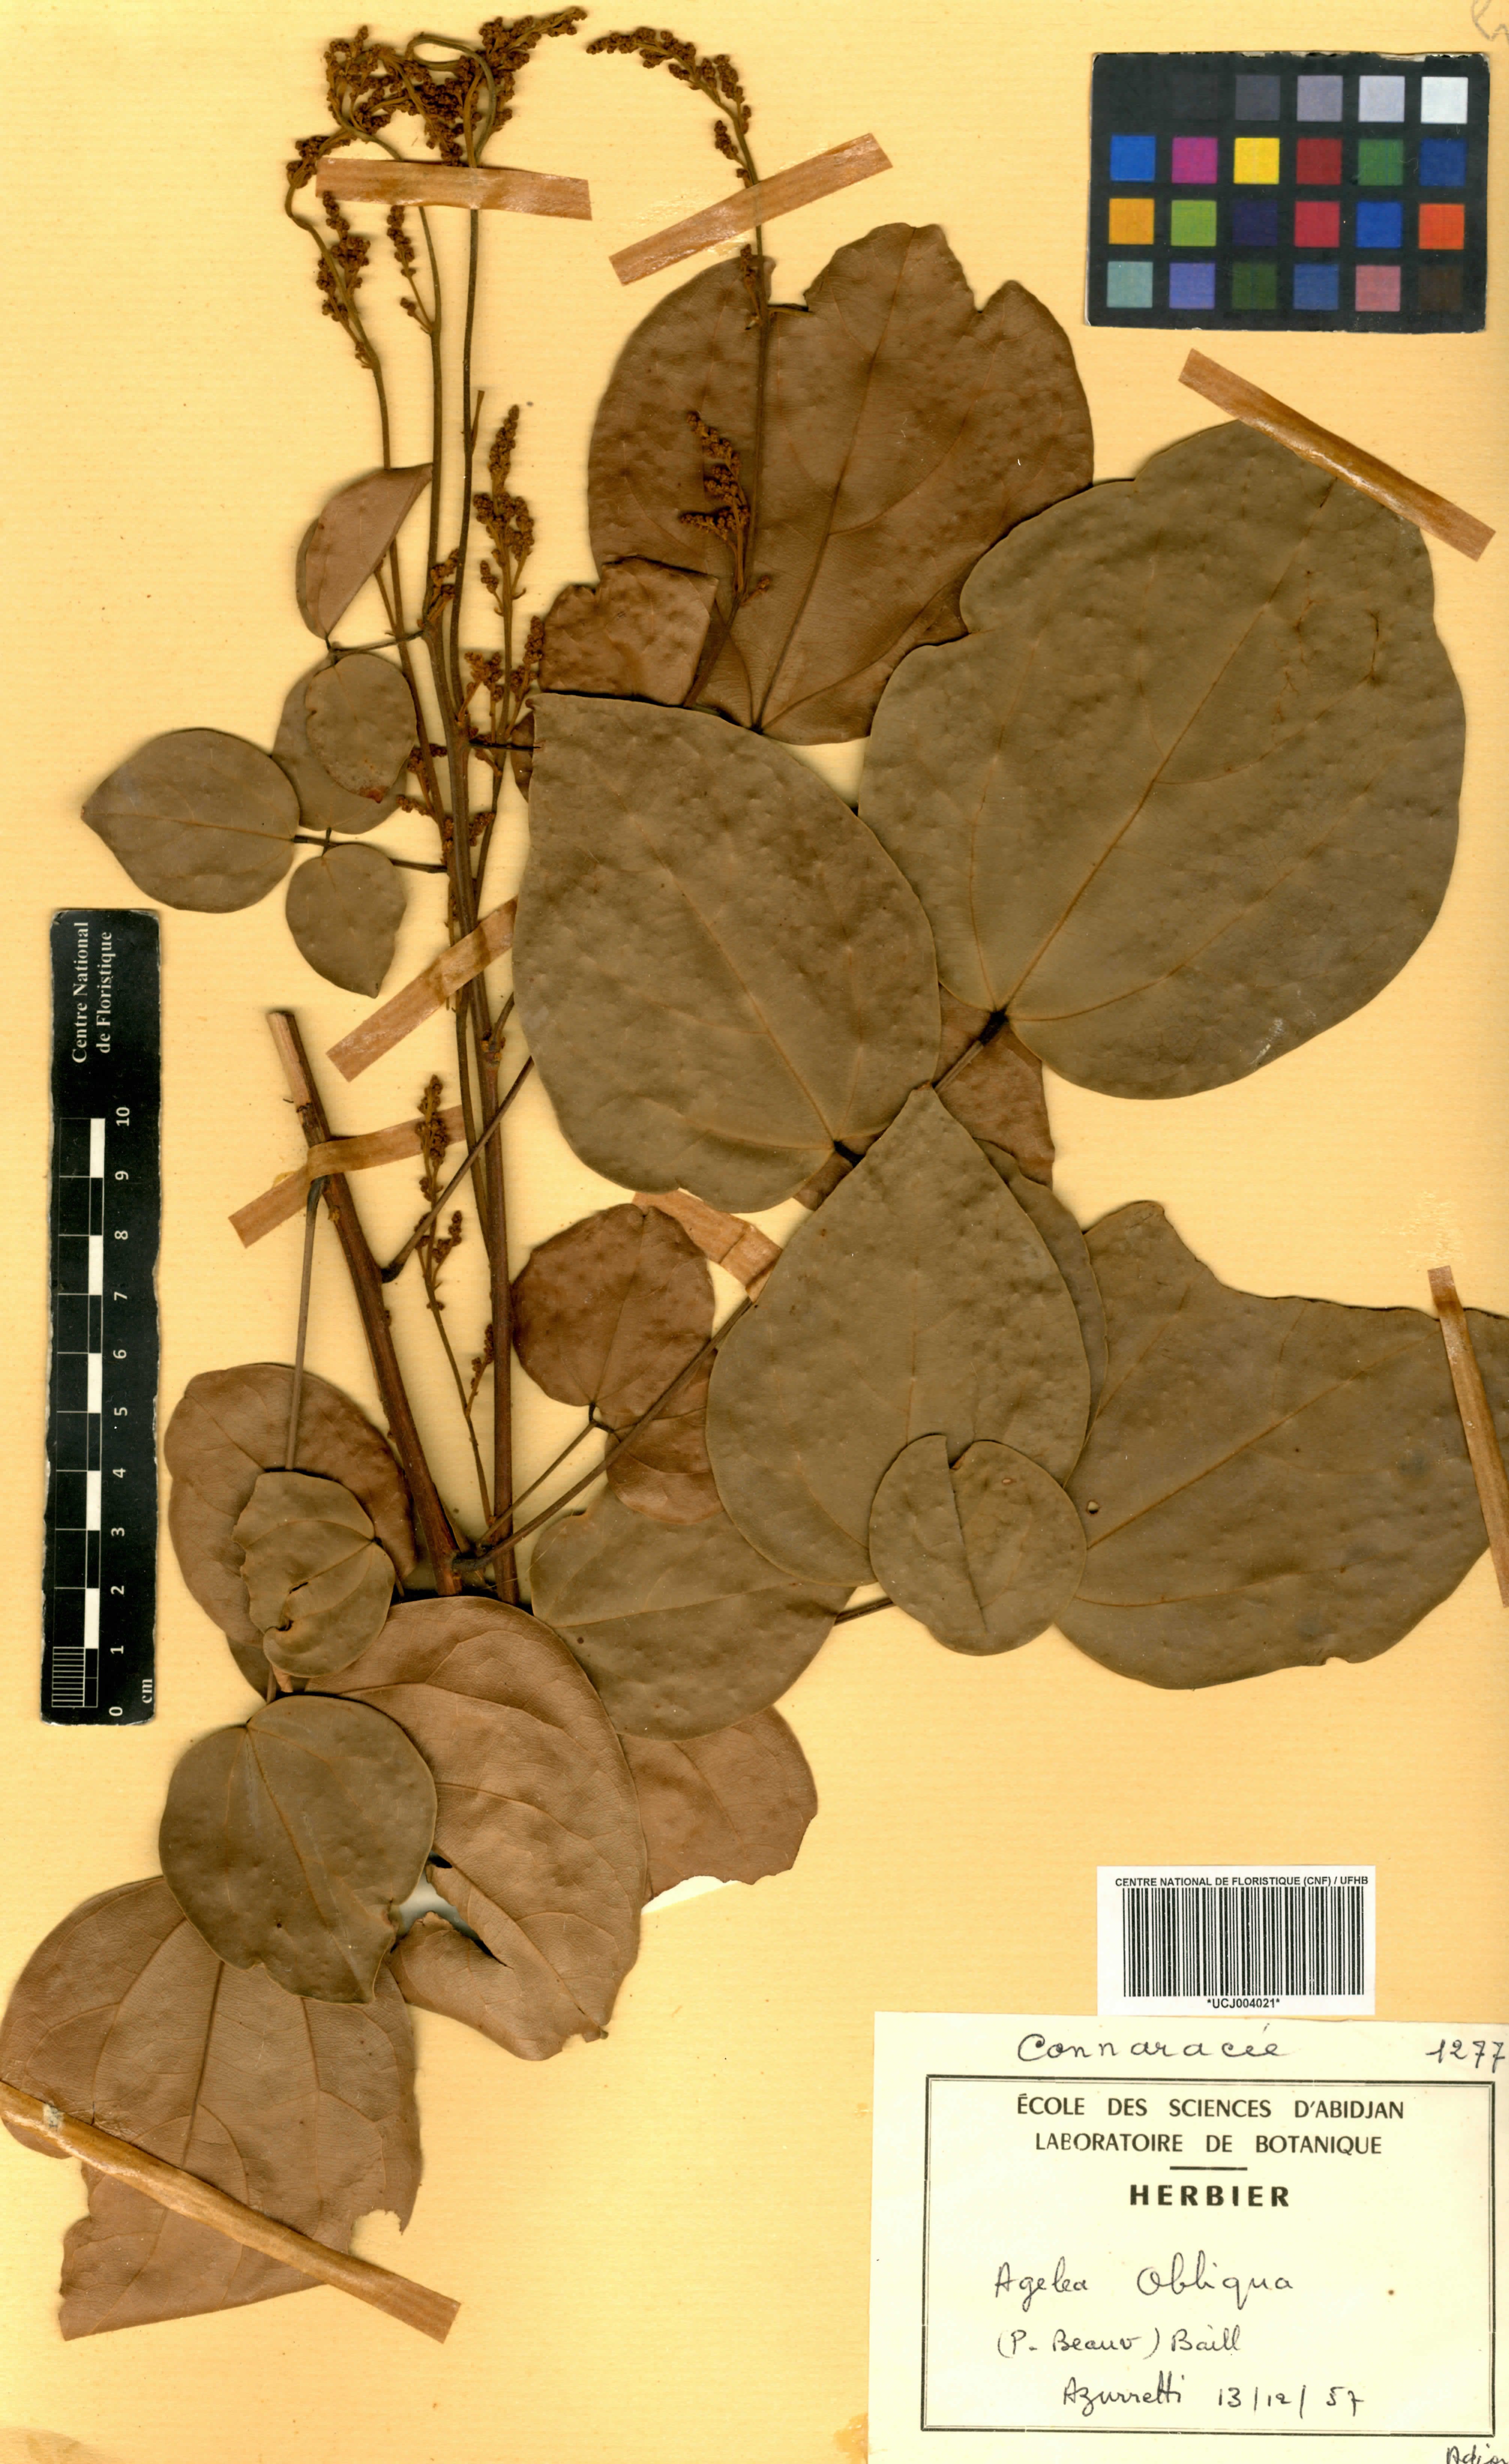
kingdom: Plantae
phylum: Tracheophyta
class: Magnoliopsida
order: Oxalidales
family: Connaraceae
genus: Agelaea
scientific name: Agelaea pentagyna
